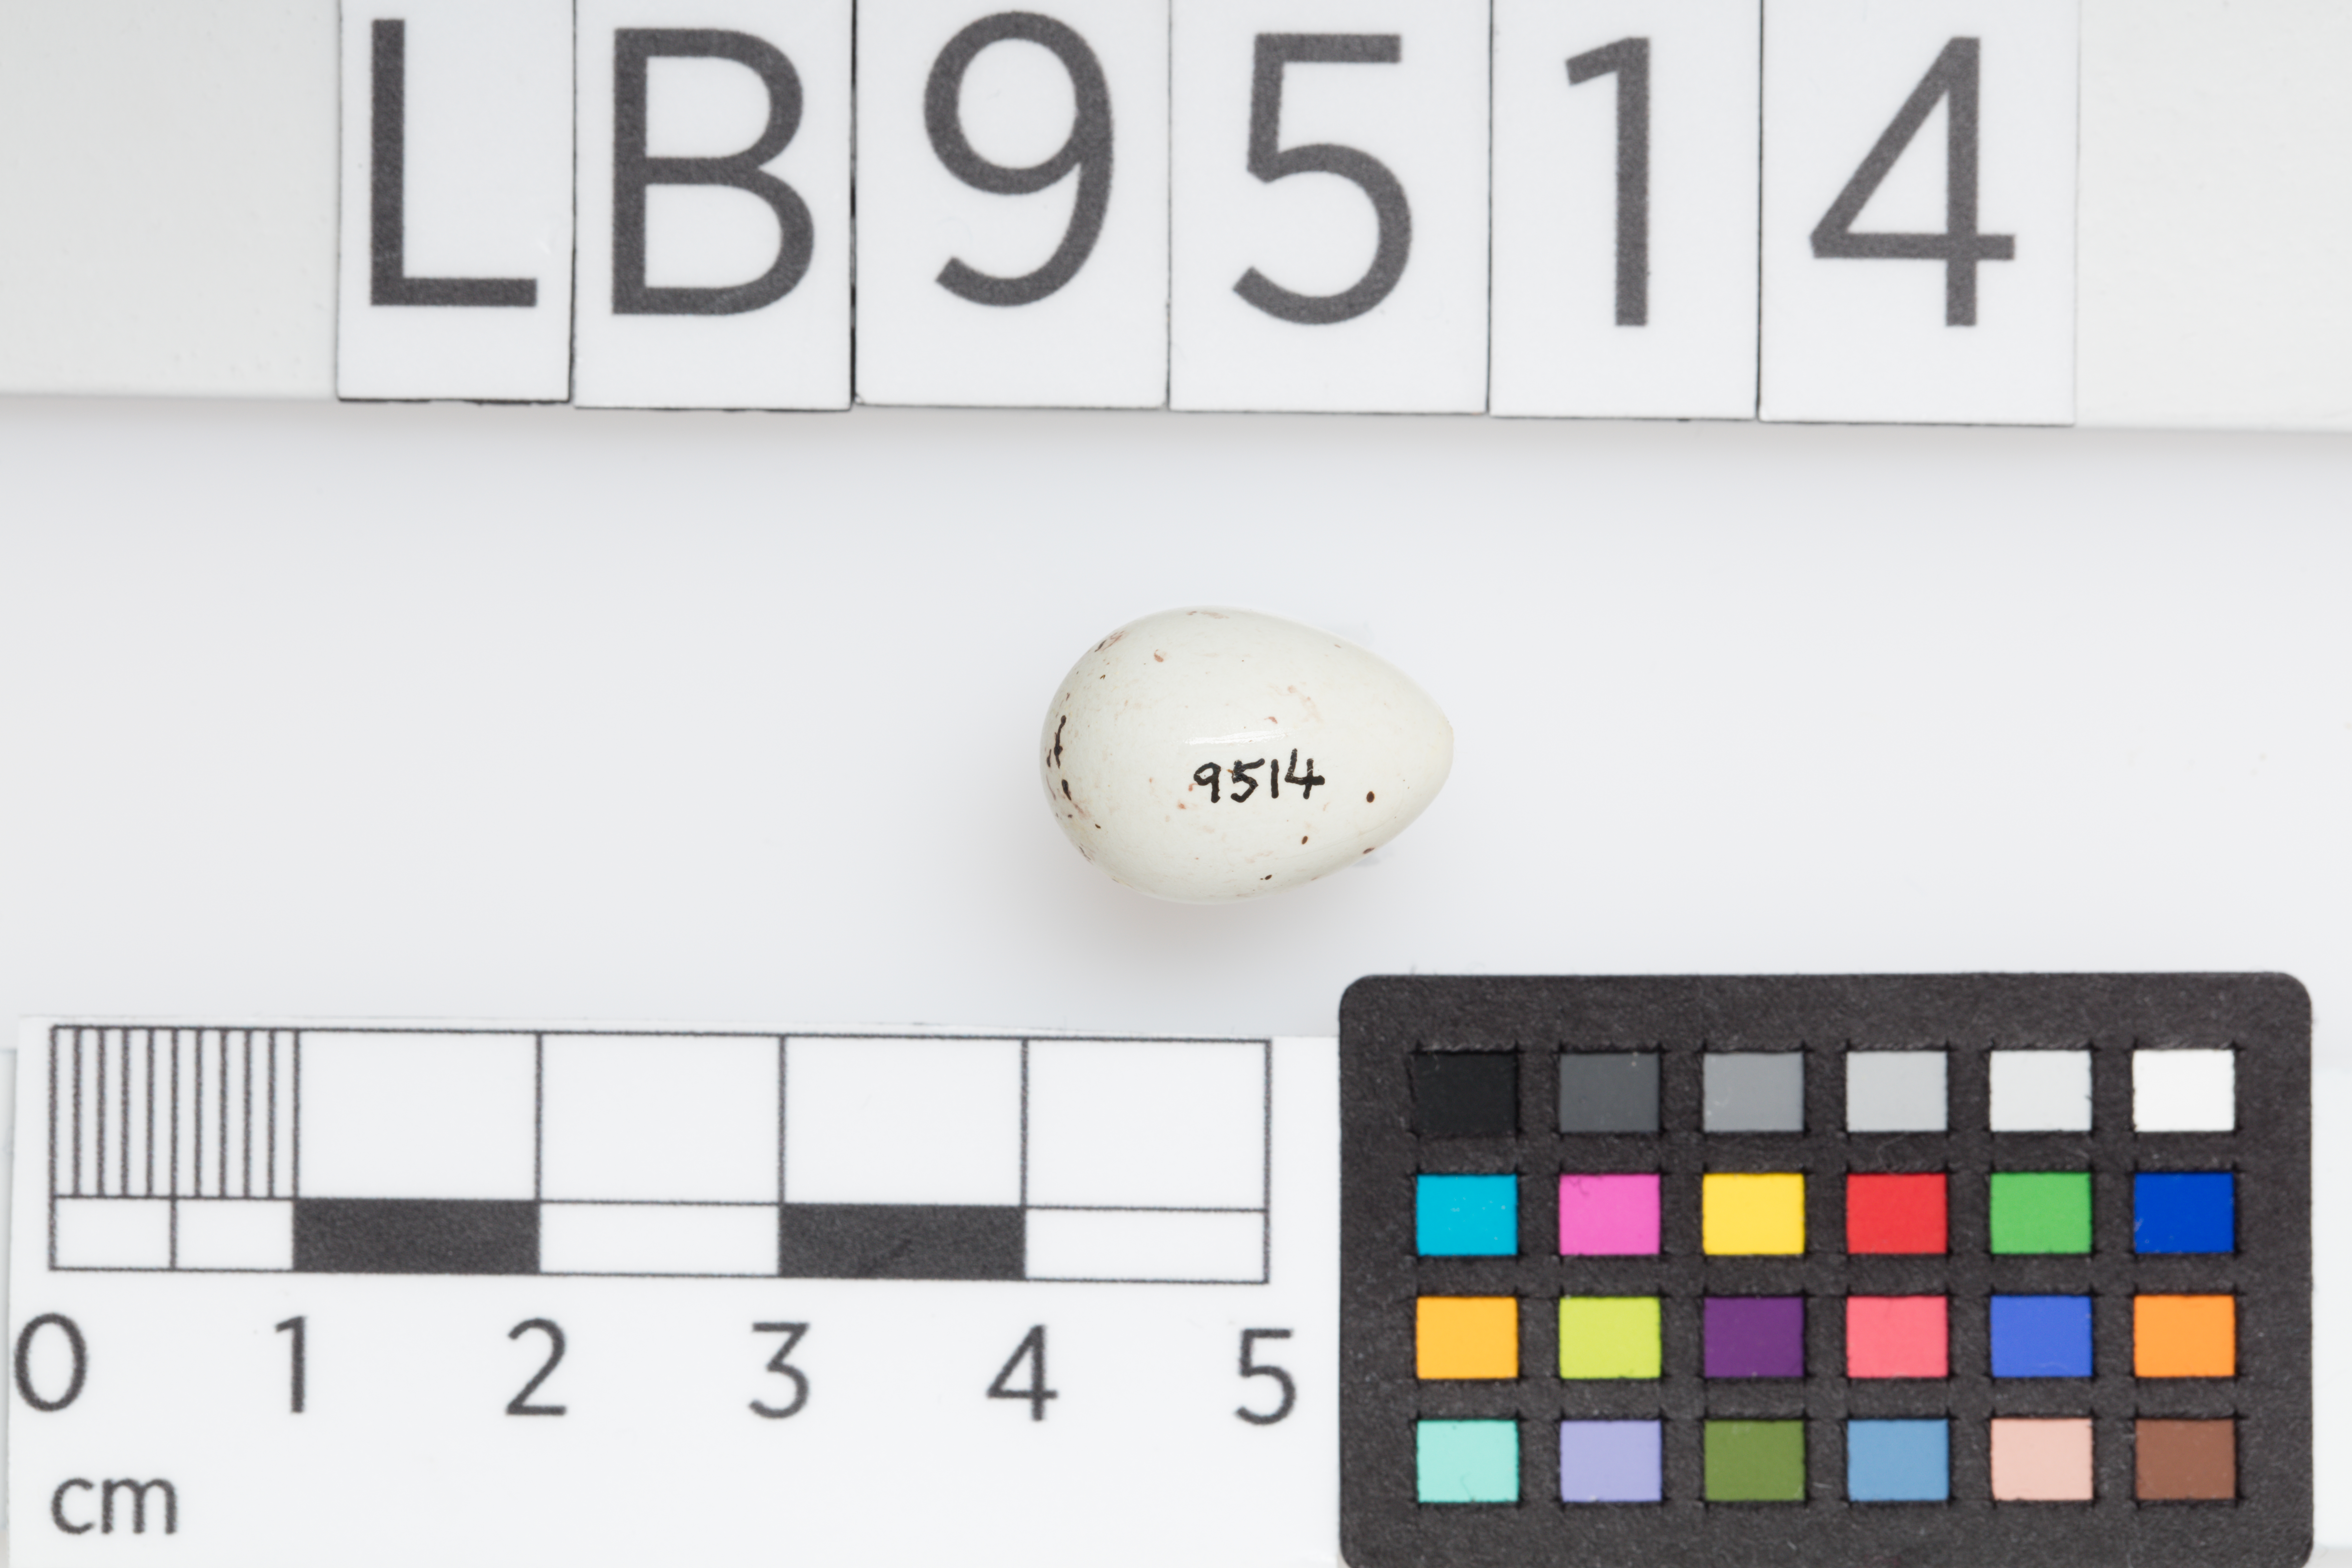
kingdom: Animalia
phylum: Chordata
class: Aves
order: Passeriformes
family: Fringillidae
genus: Carduelis
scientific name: Carduelis carduelis
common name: European goldfinch
